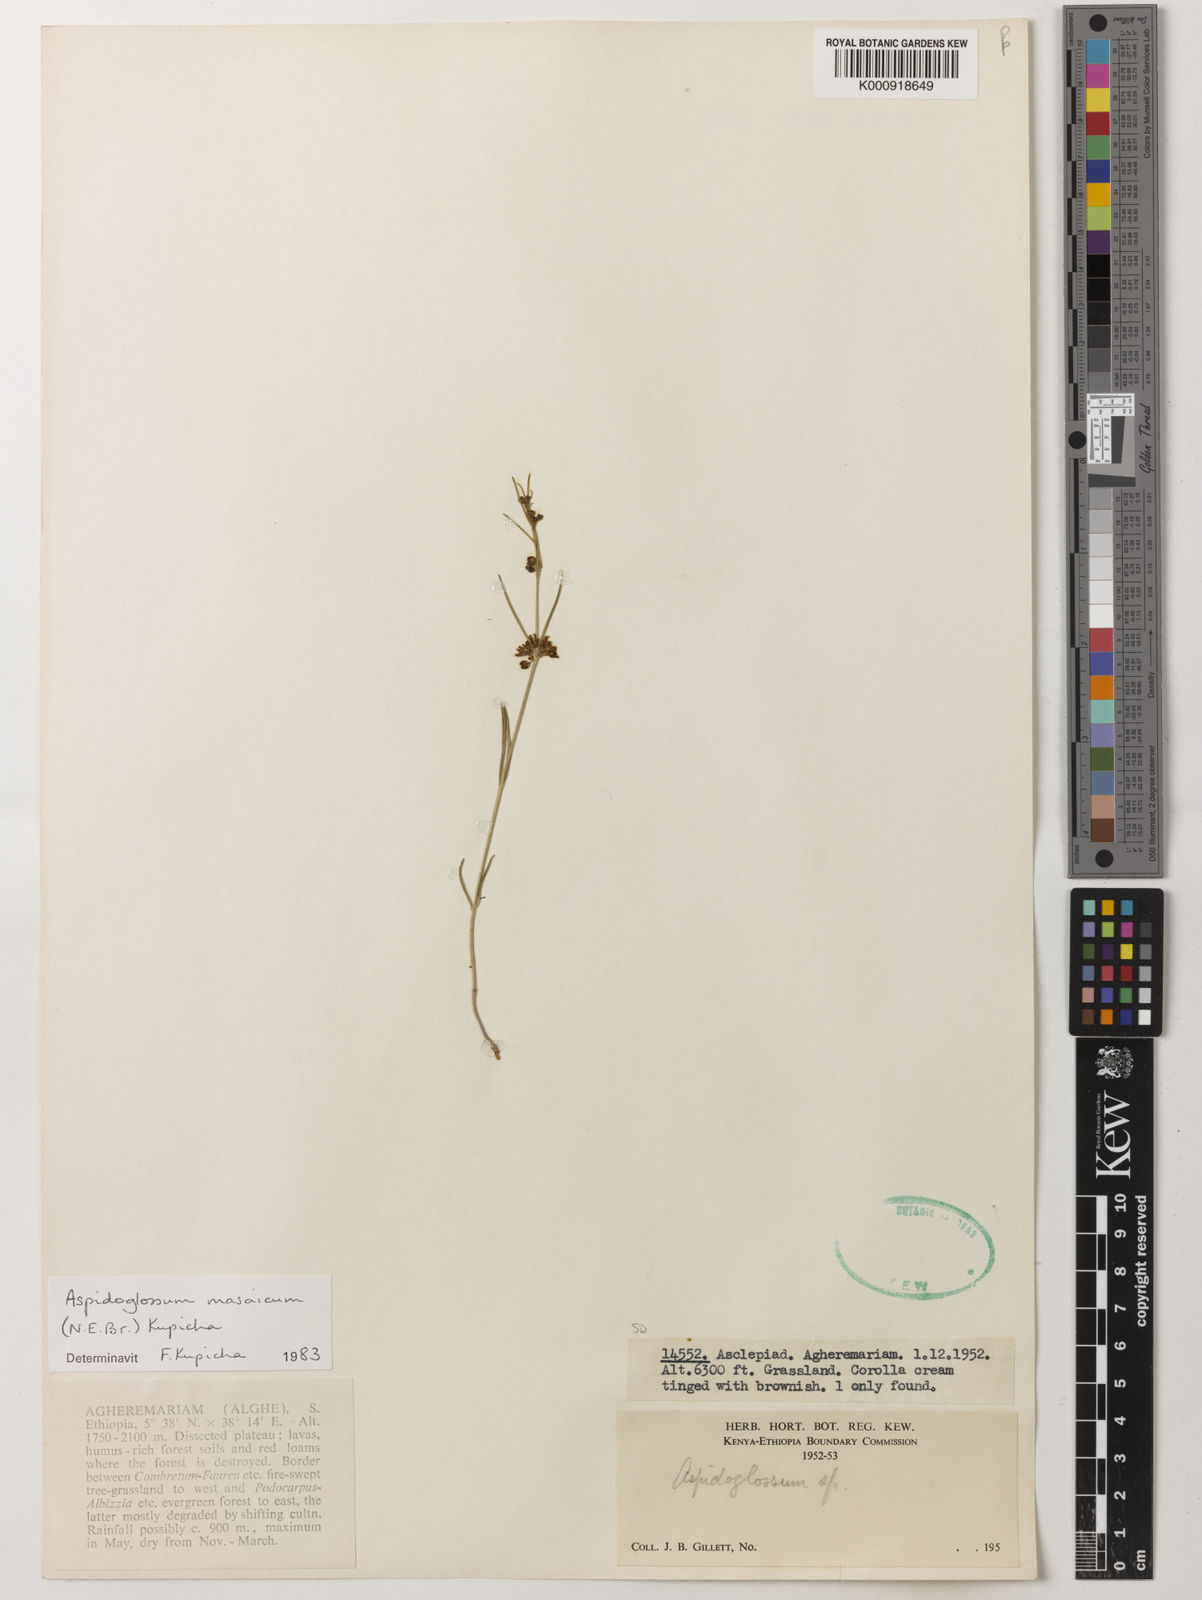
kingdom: Plantae
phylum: Tracheophyta
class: Magnoliopsida
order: Gentianales
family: Apocynaceae
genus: Aspidoglossum
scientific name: Aspidoglossum masaicum
